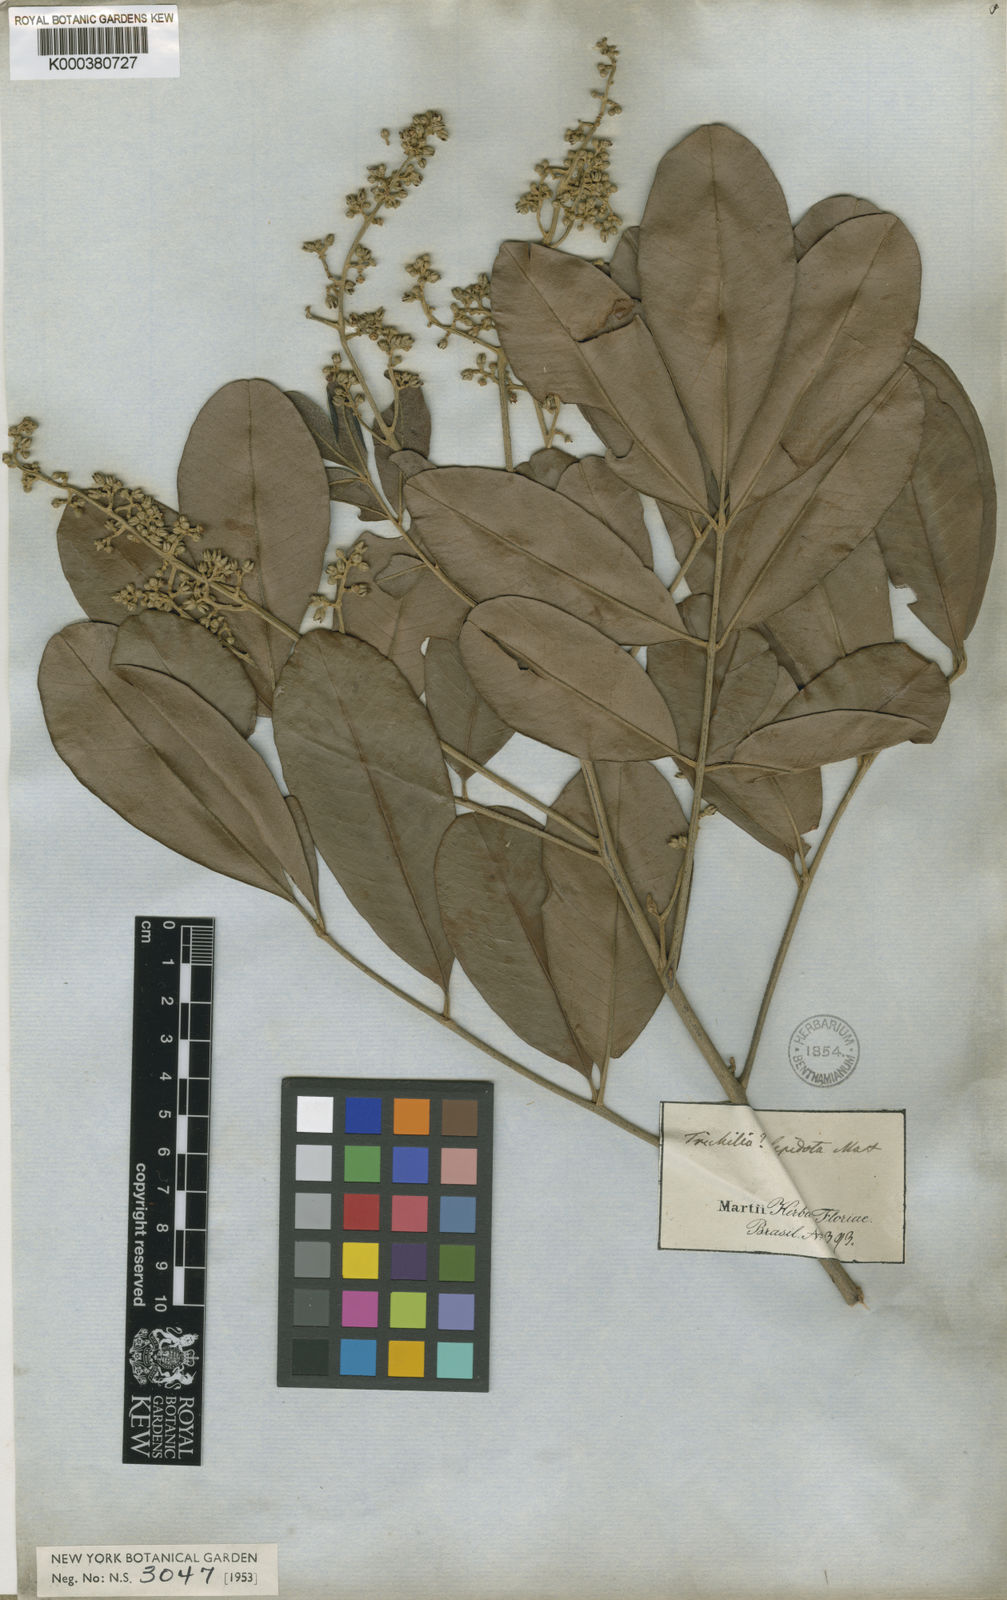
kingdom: Plantae
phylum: Tracheophyta
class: Magnoliopsida
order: Sapindales
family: Meliaceae
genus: Trichilia
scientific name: Trichilia lepidota
